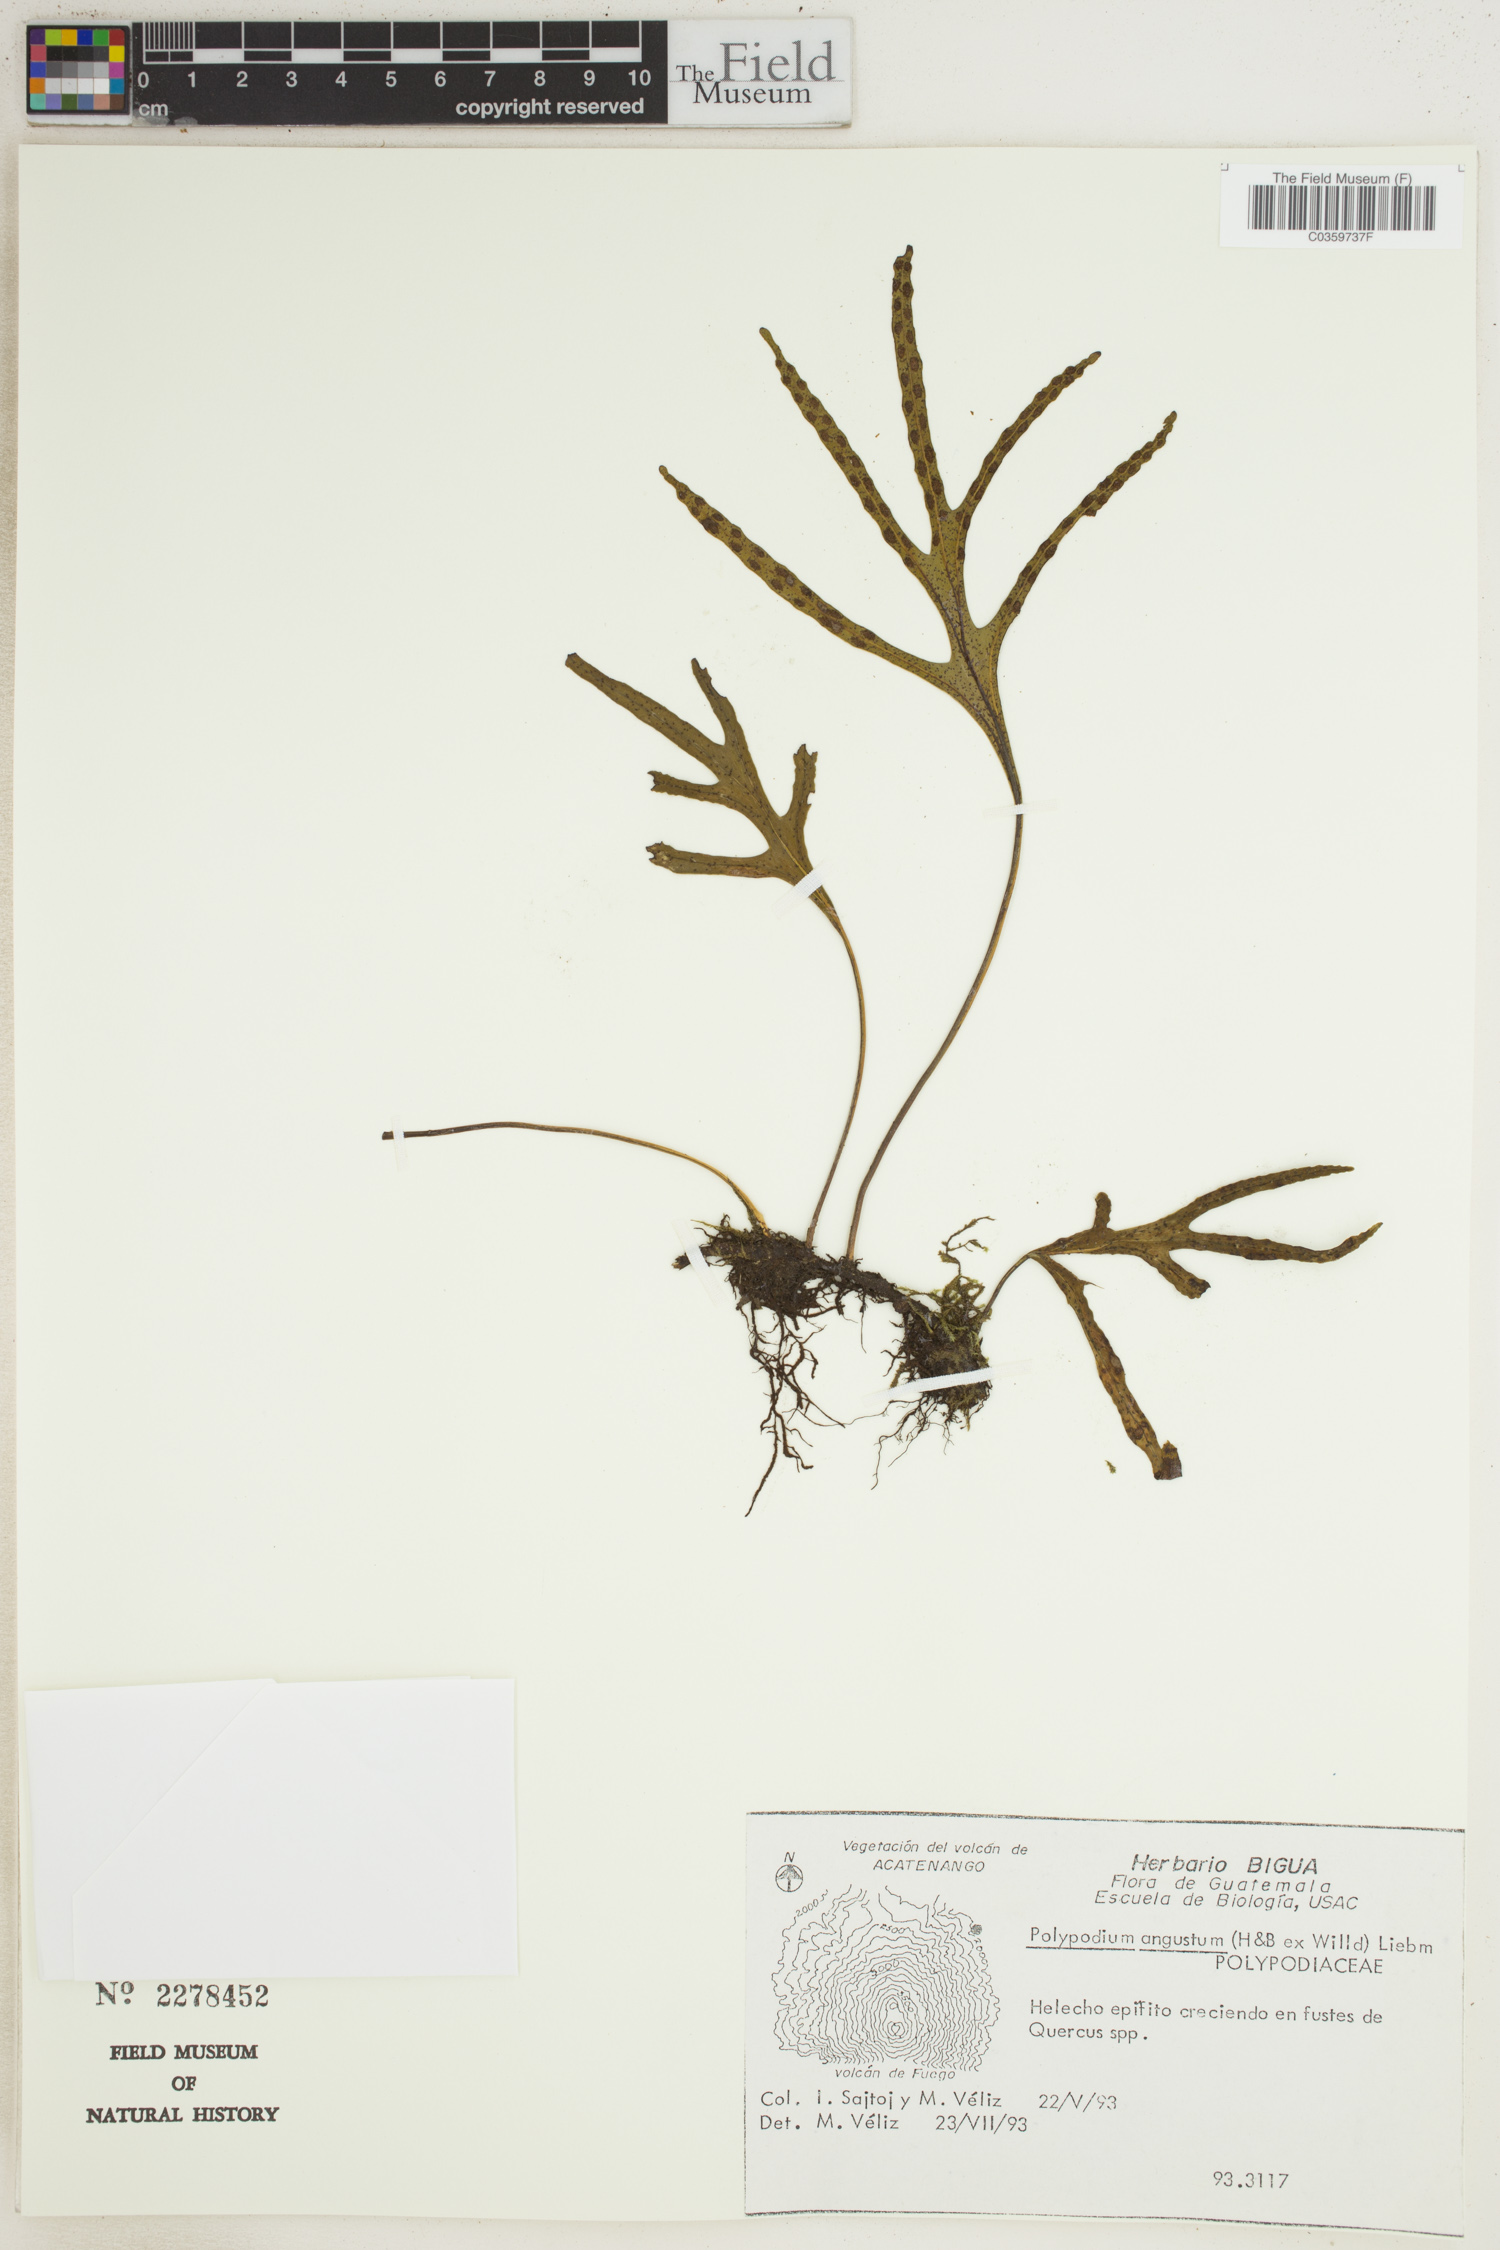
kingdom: Plantae
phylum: Tracheophyta
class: Polypodiopsida
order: Polypodiales
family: Polypodiaceae
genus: Pleopeltis
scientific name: Pleopeltis angusta
